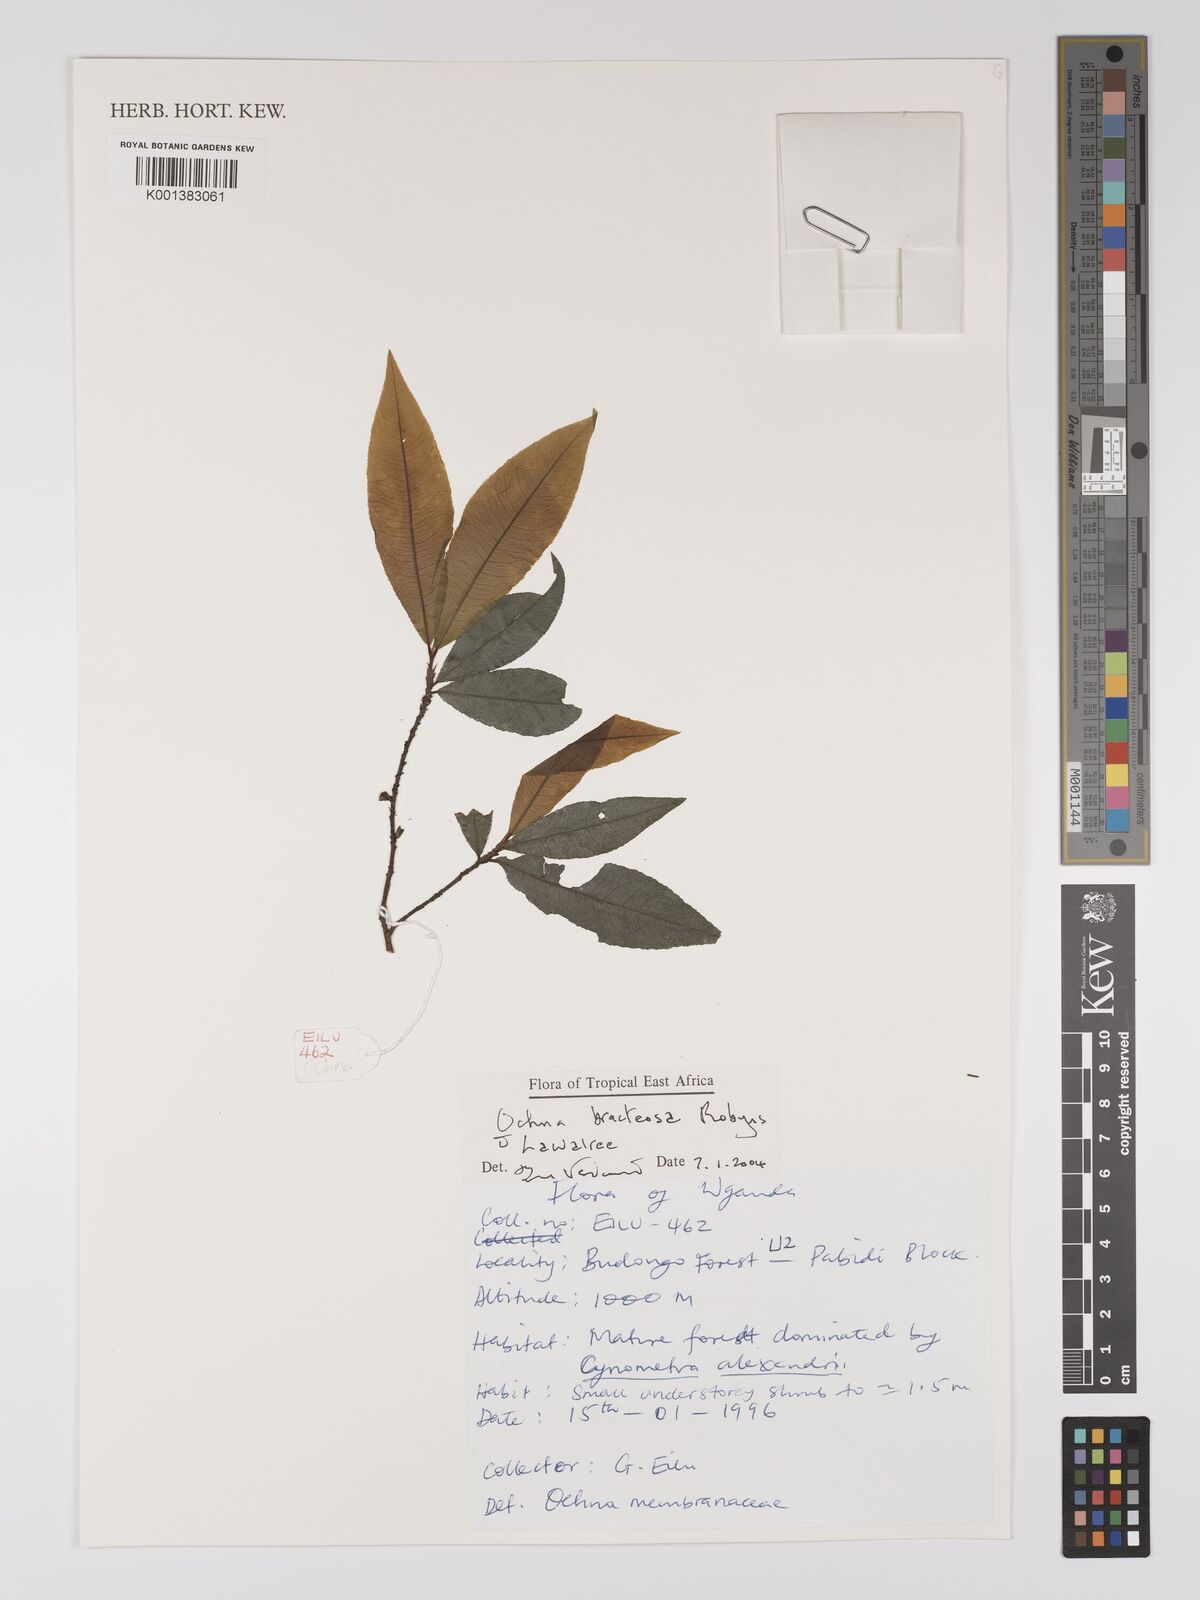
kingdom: Plantae
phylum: Tracheophyta
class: Magnoliopsida
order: Malpighiales
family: Ochnaceae
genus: Ochna
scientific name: Ochna bracteosa
